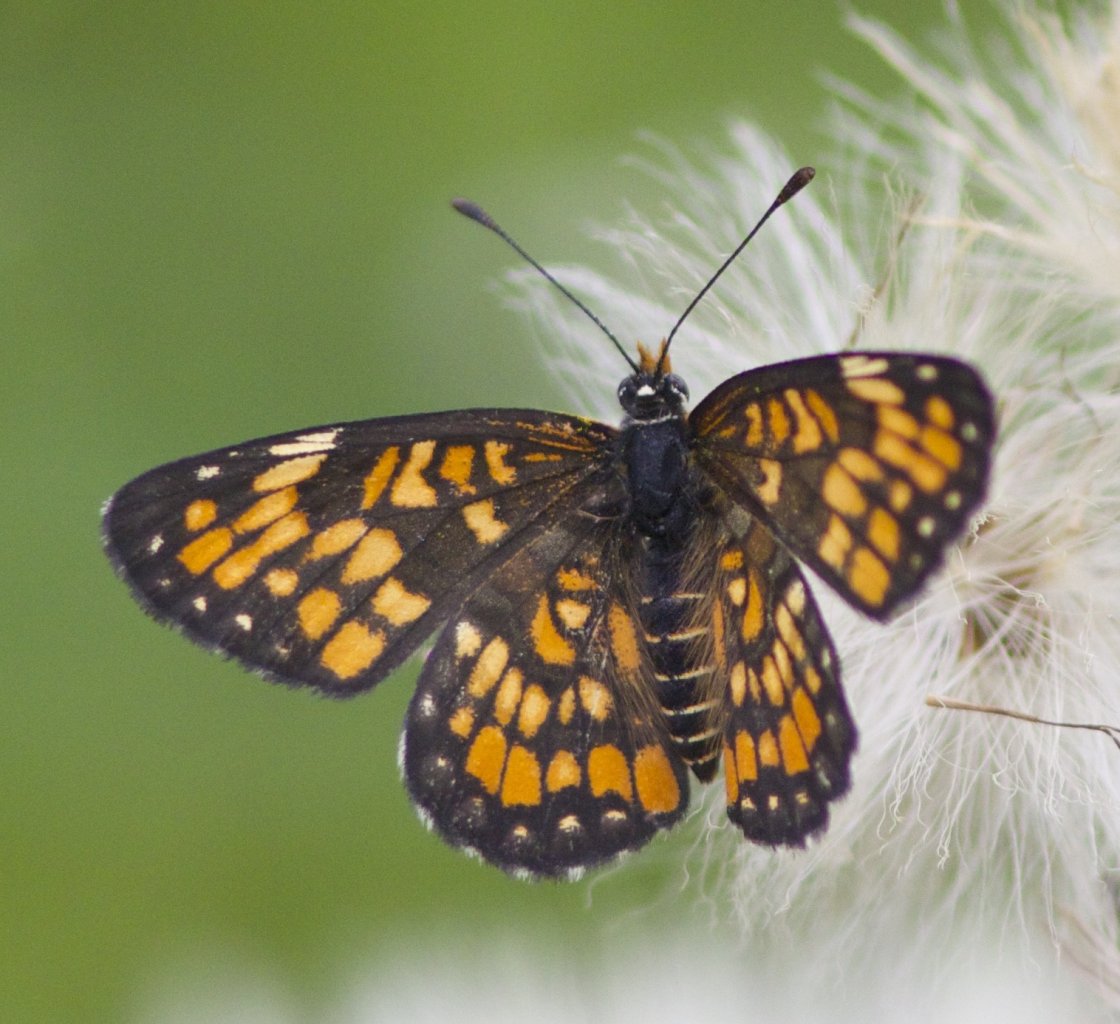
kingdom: Animalia
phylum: Arthropoda
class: Insecta
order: Lepidoptera
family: Nymphalidae
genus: Chlosyne
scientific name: Chlosyne definita
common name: Definite Patch
